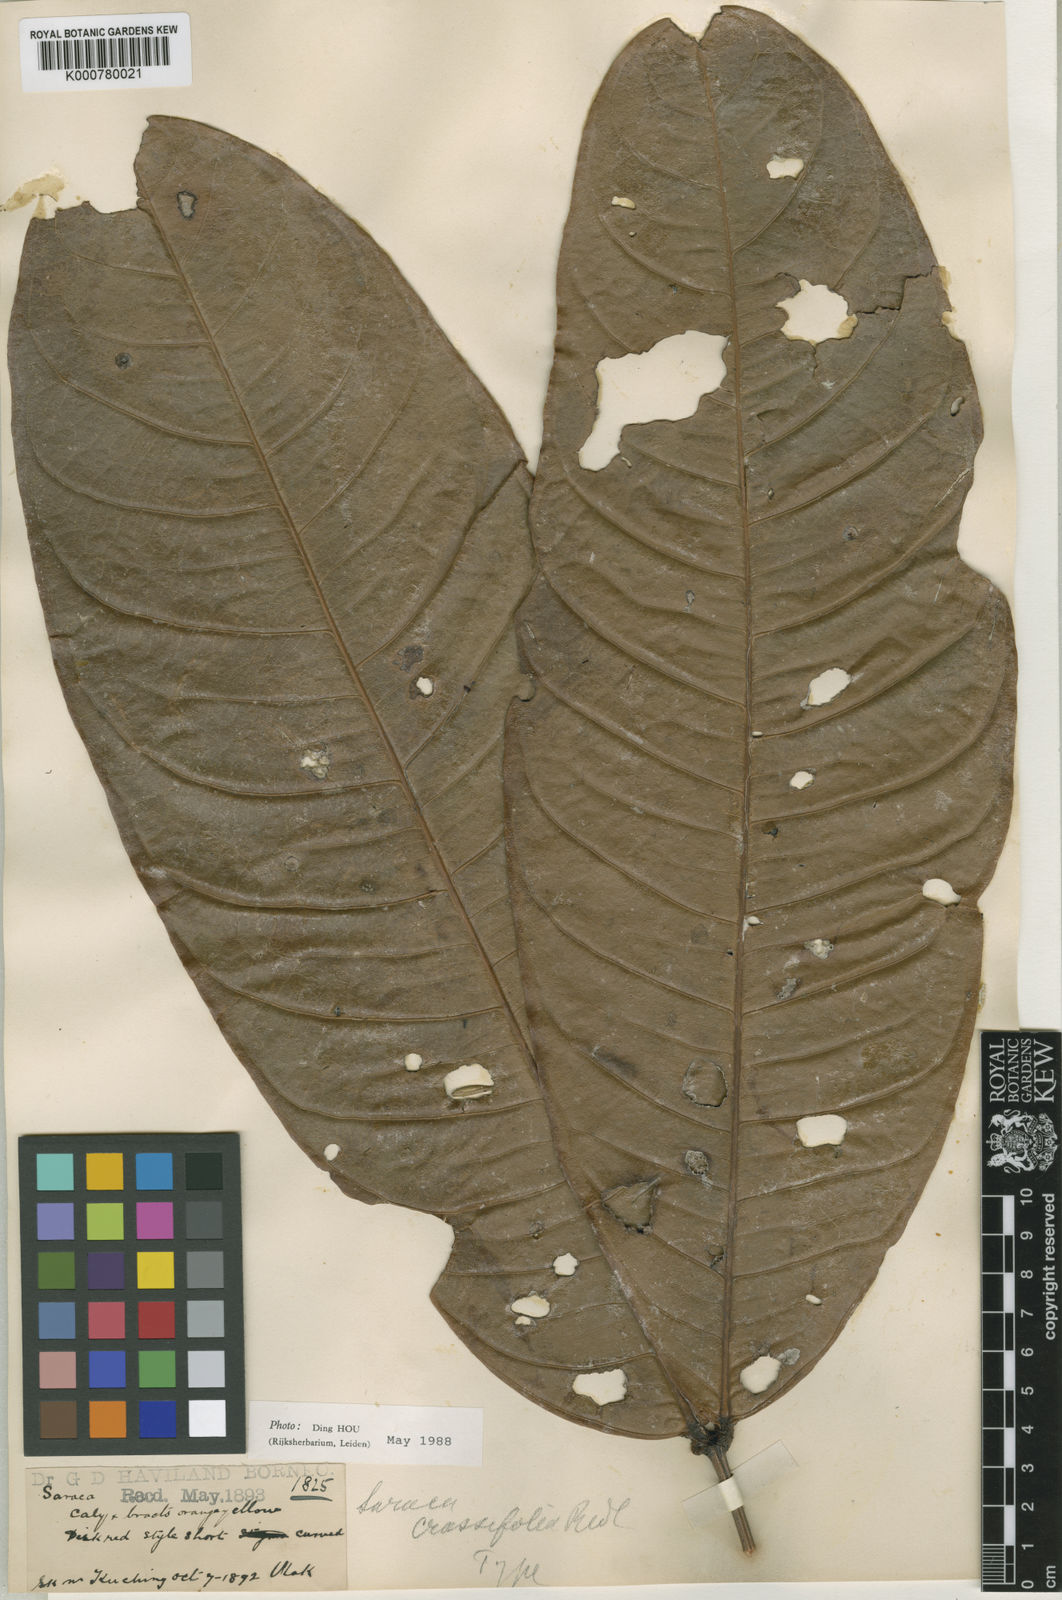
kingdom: Plantae
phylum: Tracheophyta
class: Magnoliopsida
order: Fabales
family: Fabaceae
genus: Saraca
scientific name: Saraca declinata
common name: Red saraca
